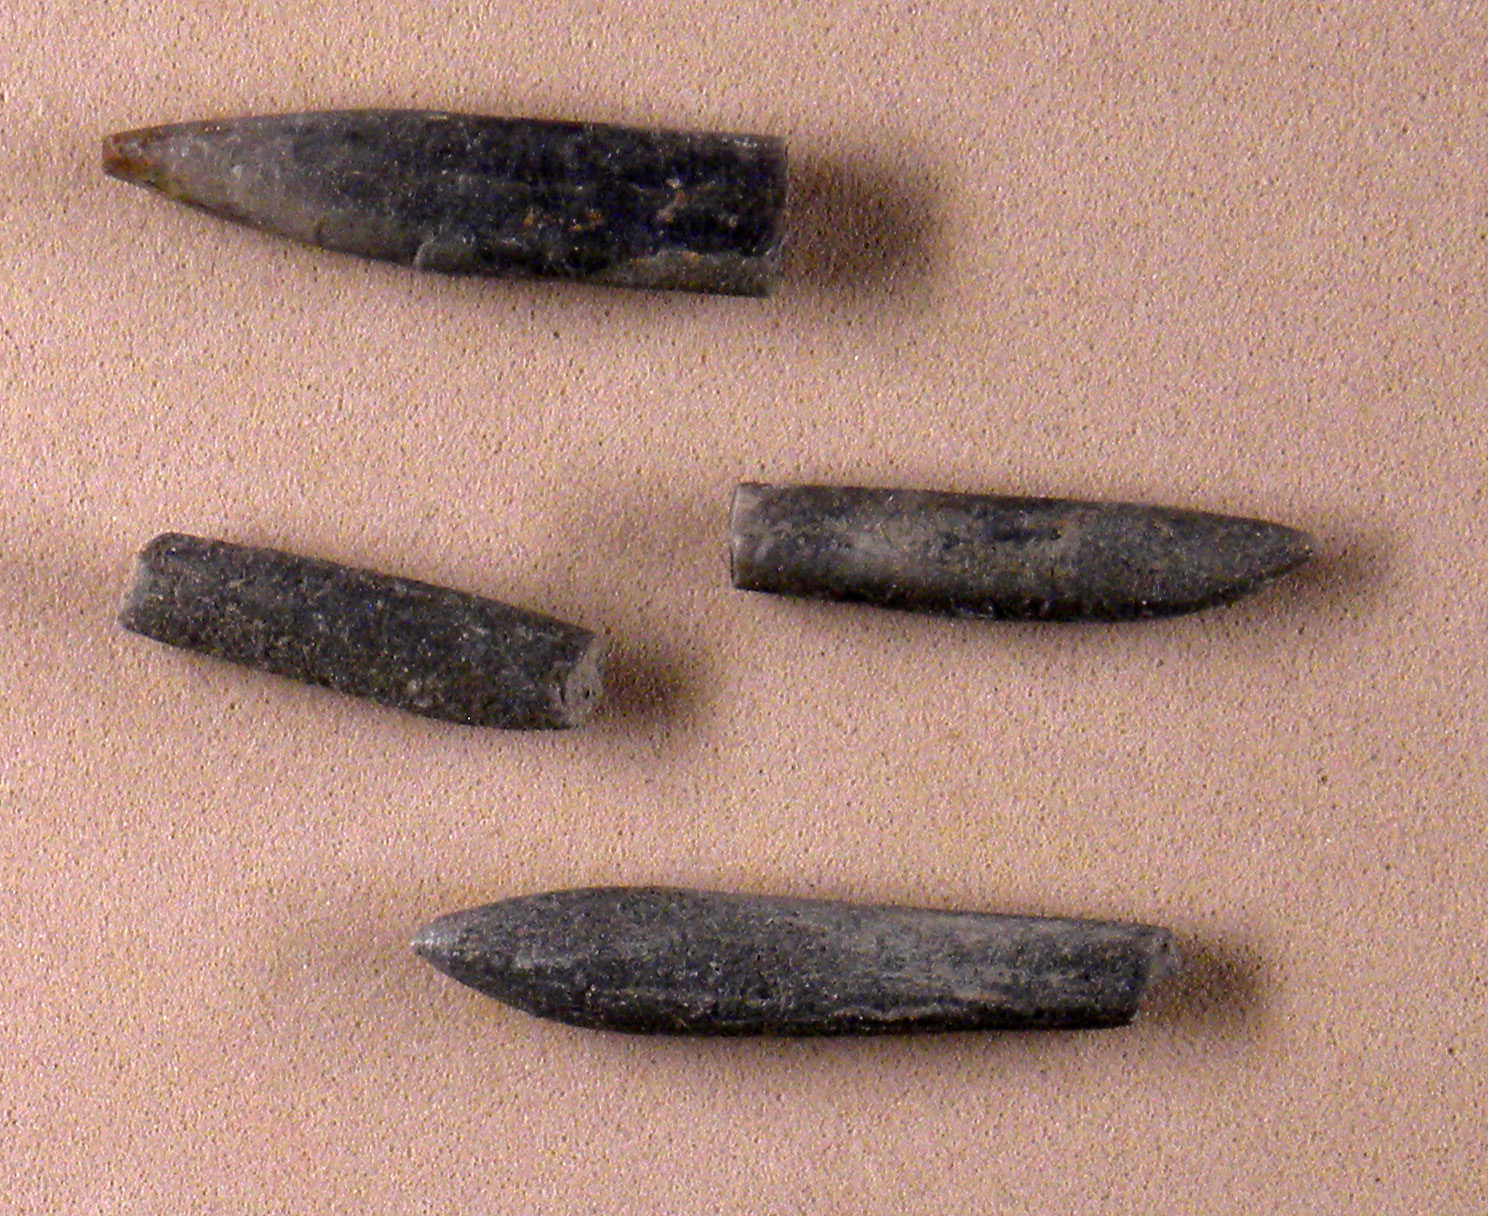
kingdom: Animalia
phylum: Mollusca
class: Cephalopoda
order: Belemnitida
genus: Rhabdobelus
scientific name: Rhabdobelus donovani
